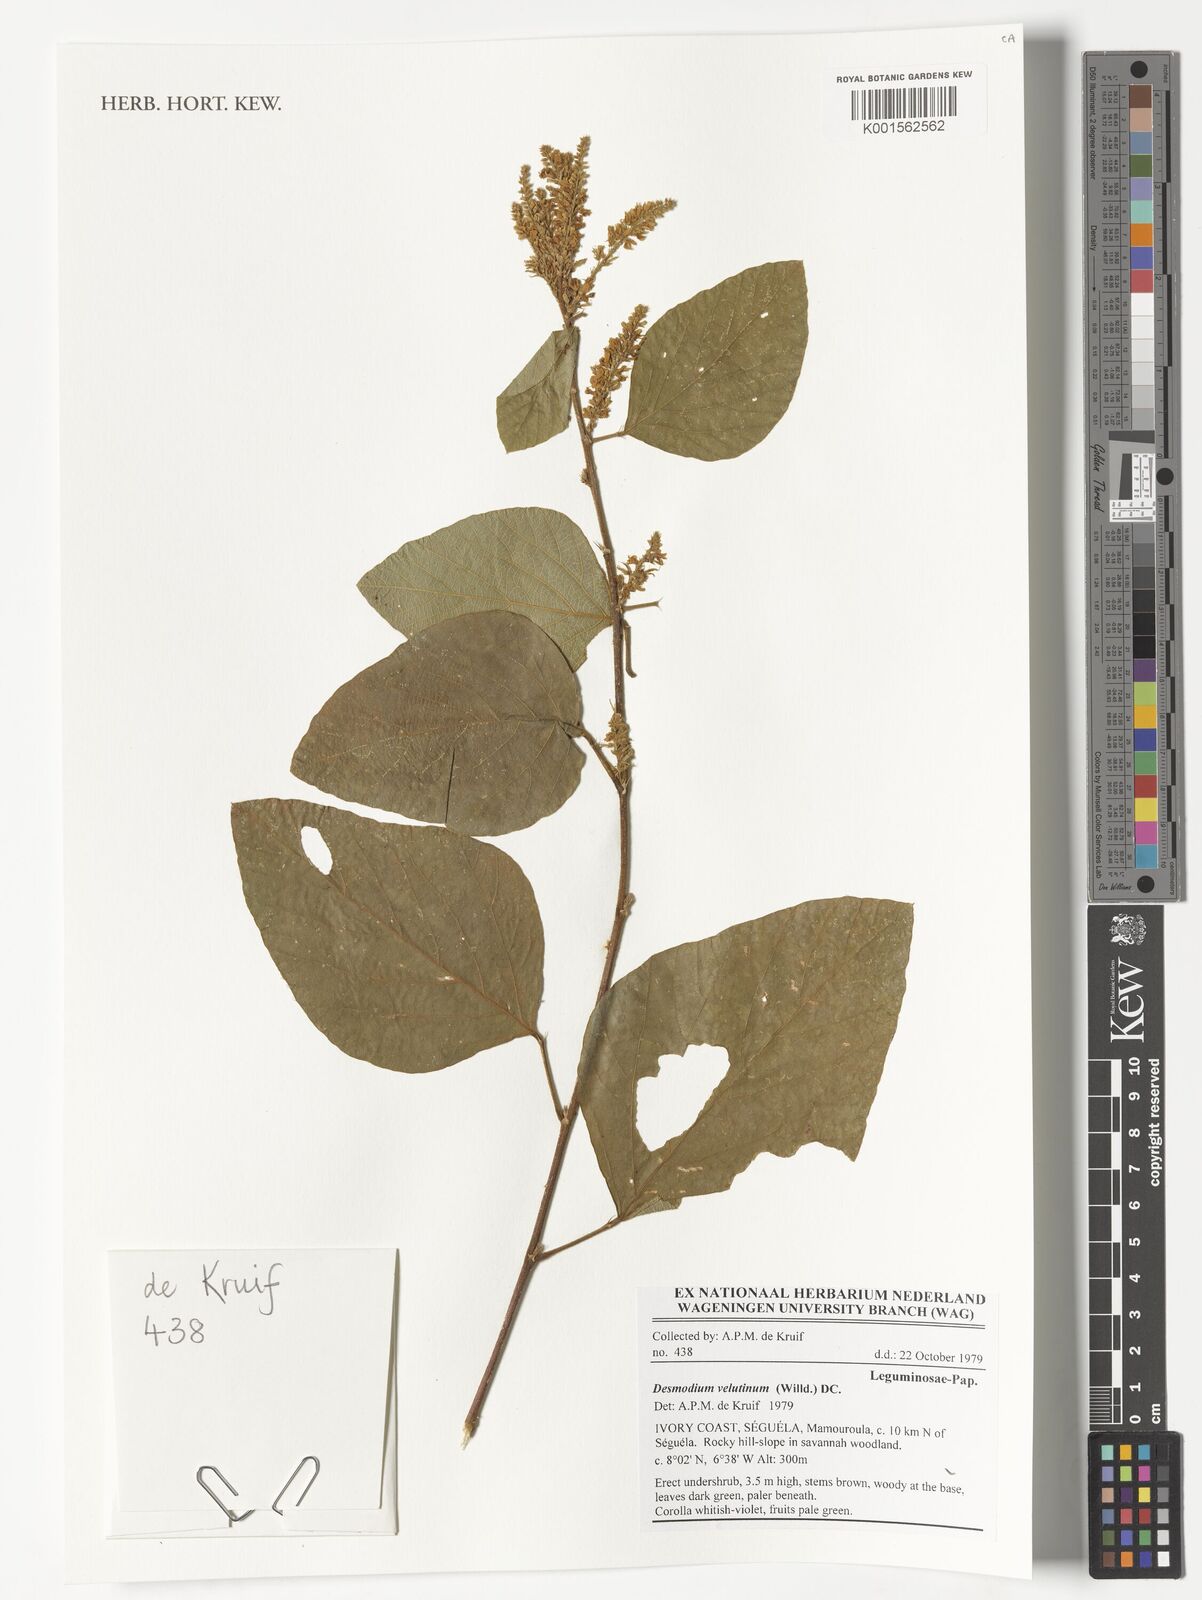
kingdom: Plantae
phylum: Tracheophyta
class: Magnoliopsida
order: Fabales
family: Fabaceae
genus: Polhillides
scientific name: Polhillides velutina
